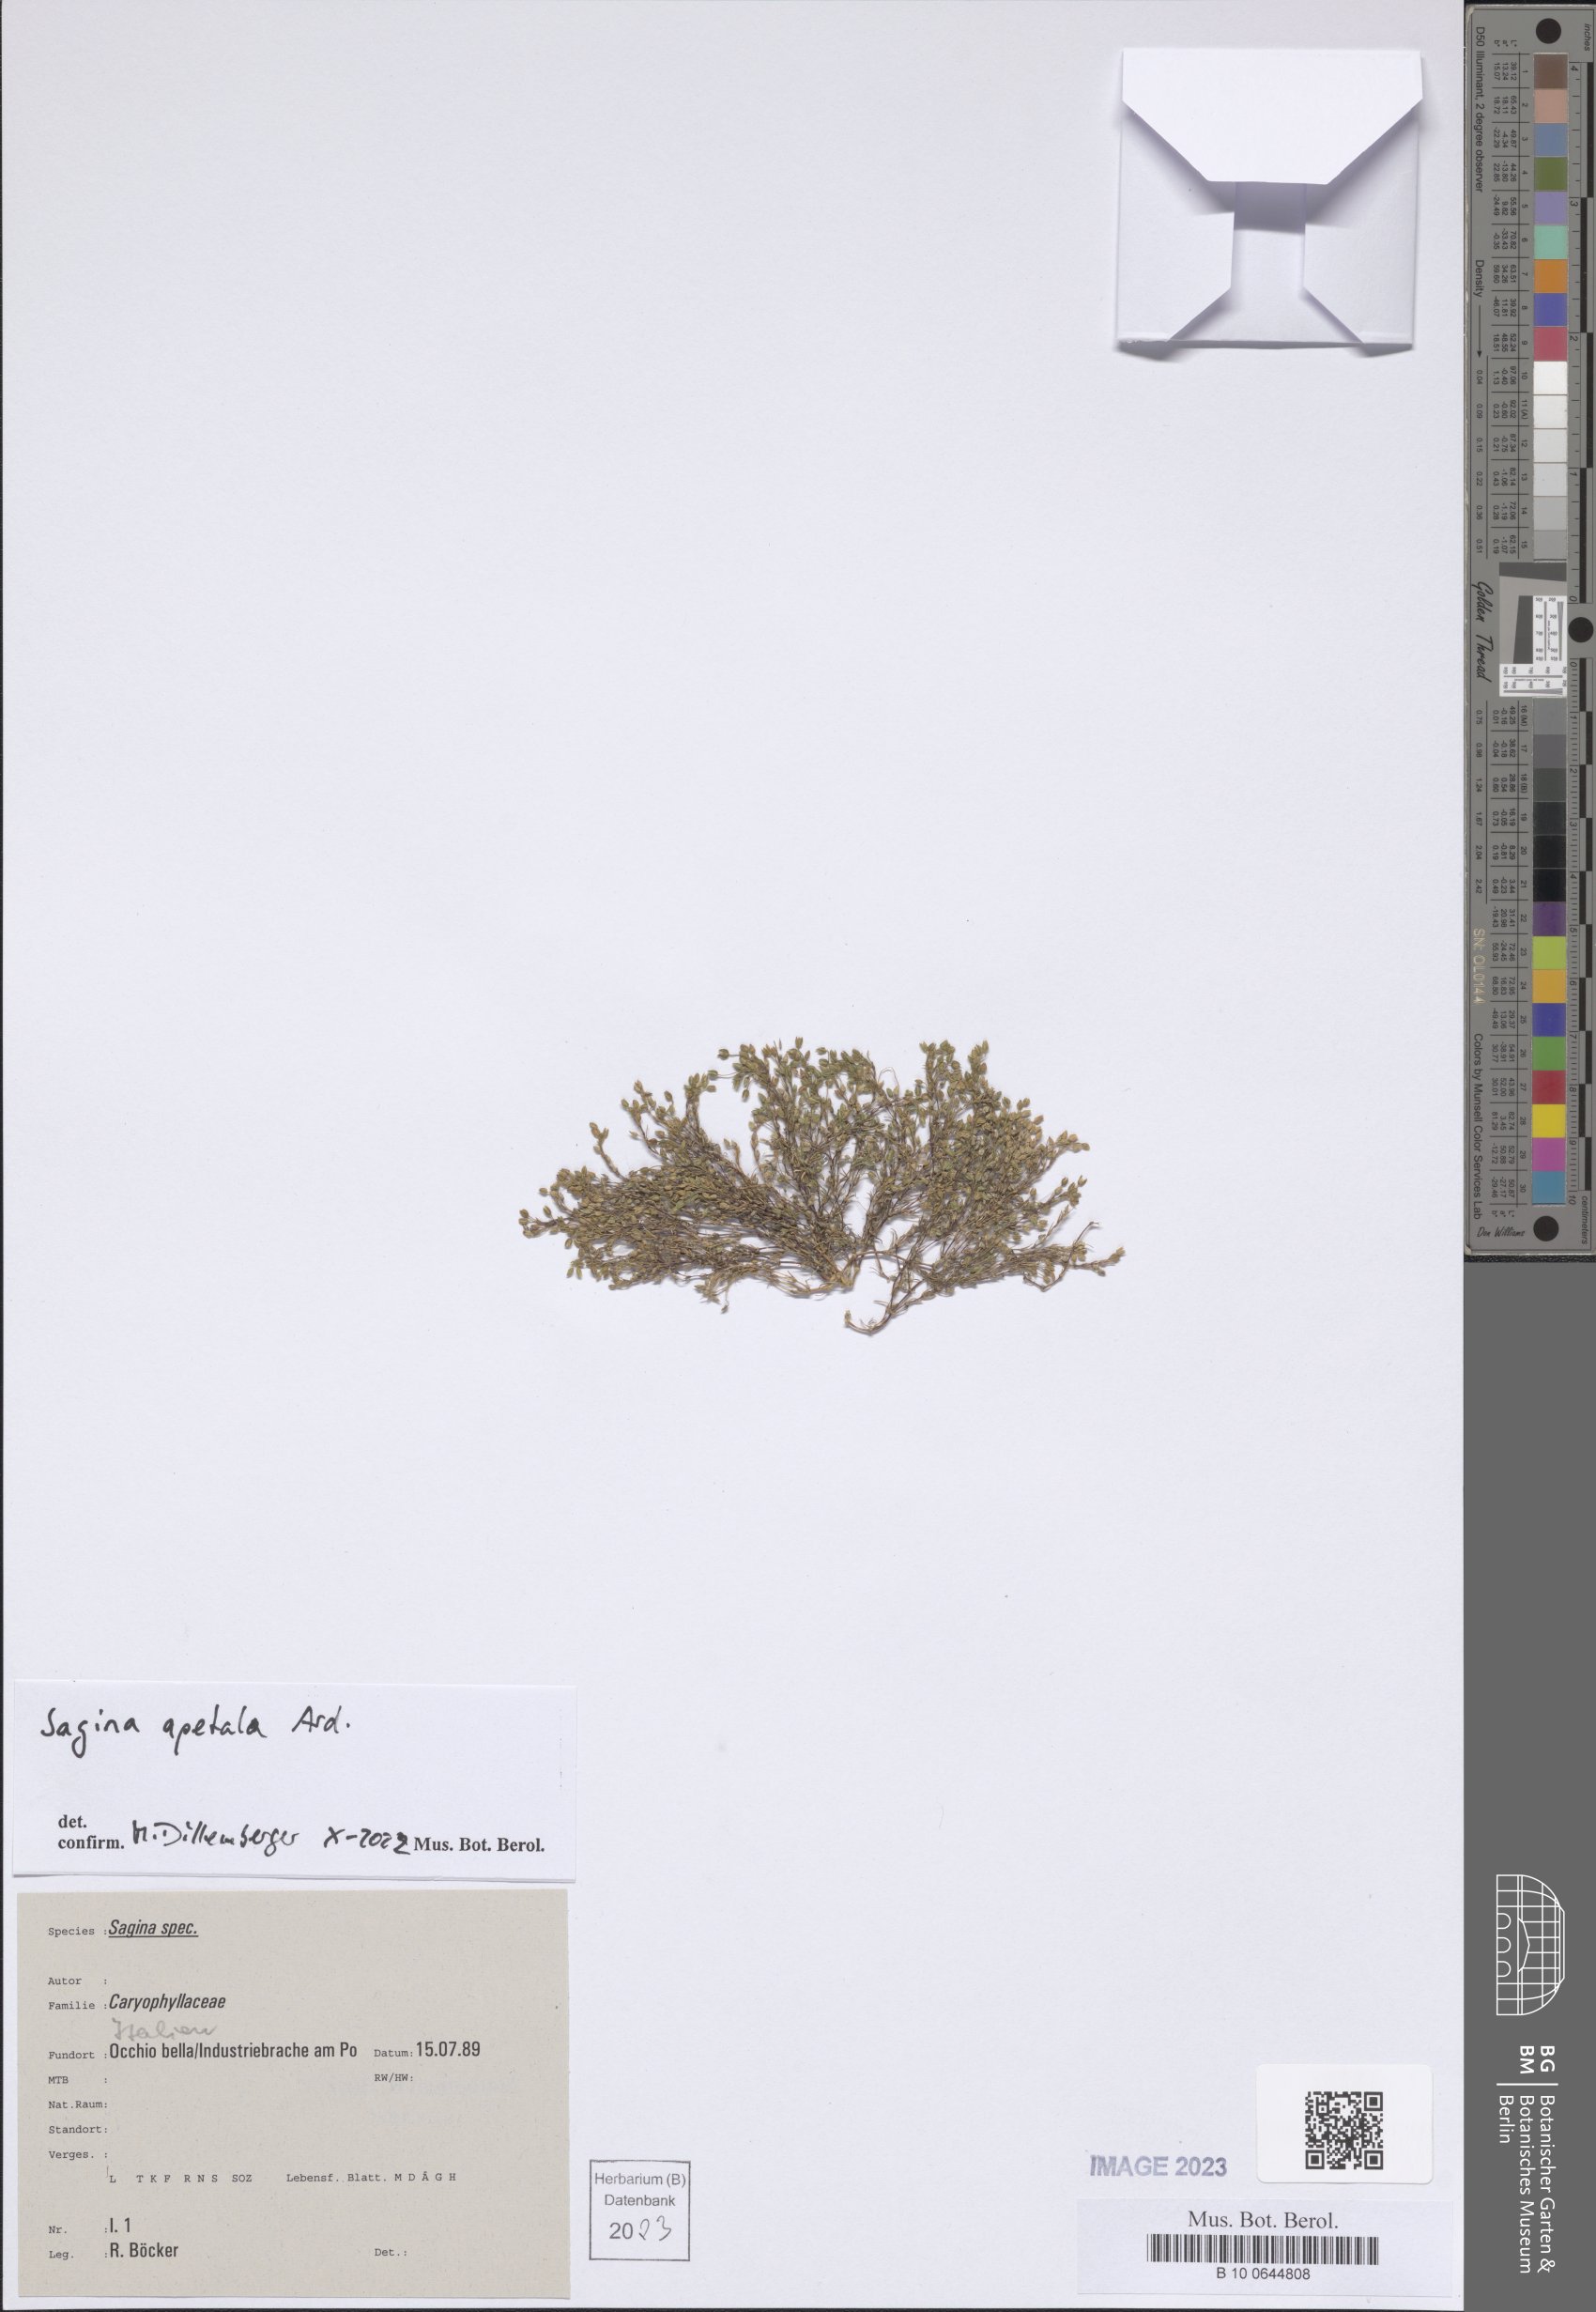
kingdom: Plantae
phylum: Tracheophyta
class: Magnoliopsida
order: Caryophyllales
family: Caryophyllaceae
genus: Sagina
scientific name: Sagina apetala
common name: Annual pearlwort
